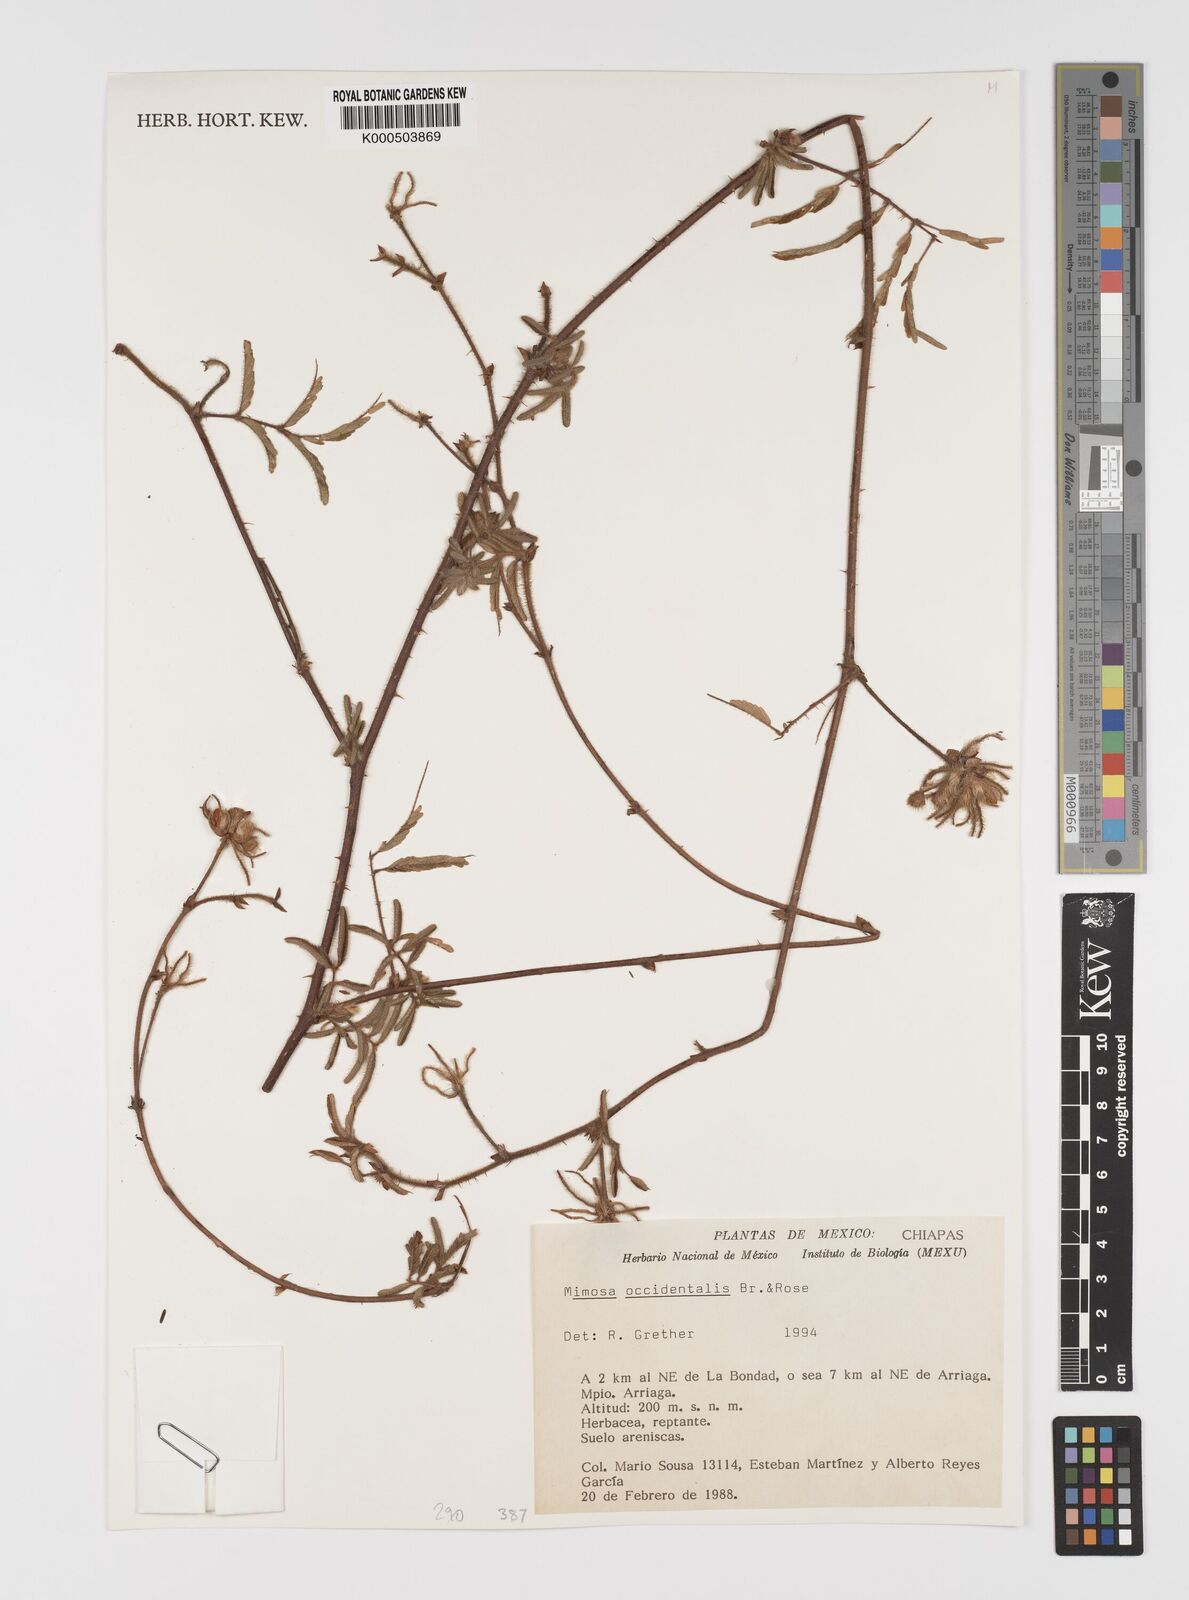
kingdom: Plantae
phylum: Tracheophyta
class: Magnoliopsida
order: Fabales
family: Fabaceae
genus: Mimosa
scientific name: Mimosa occidentalis
